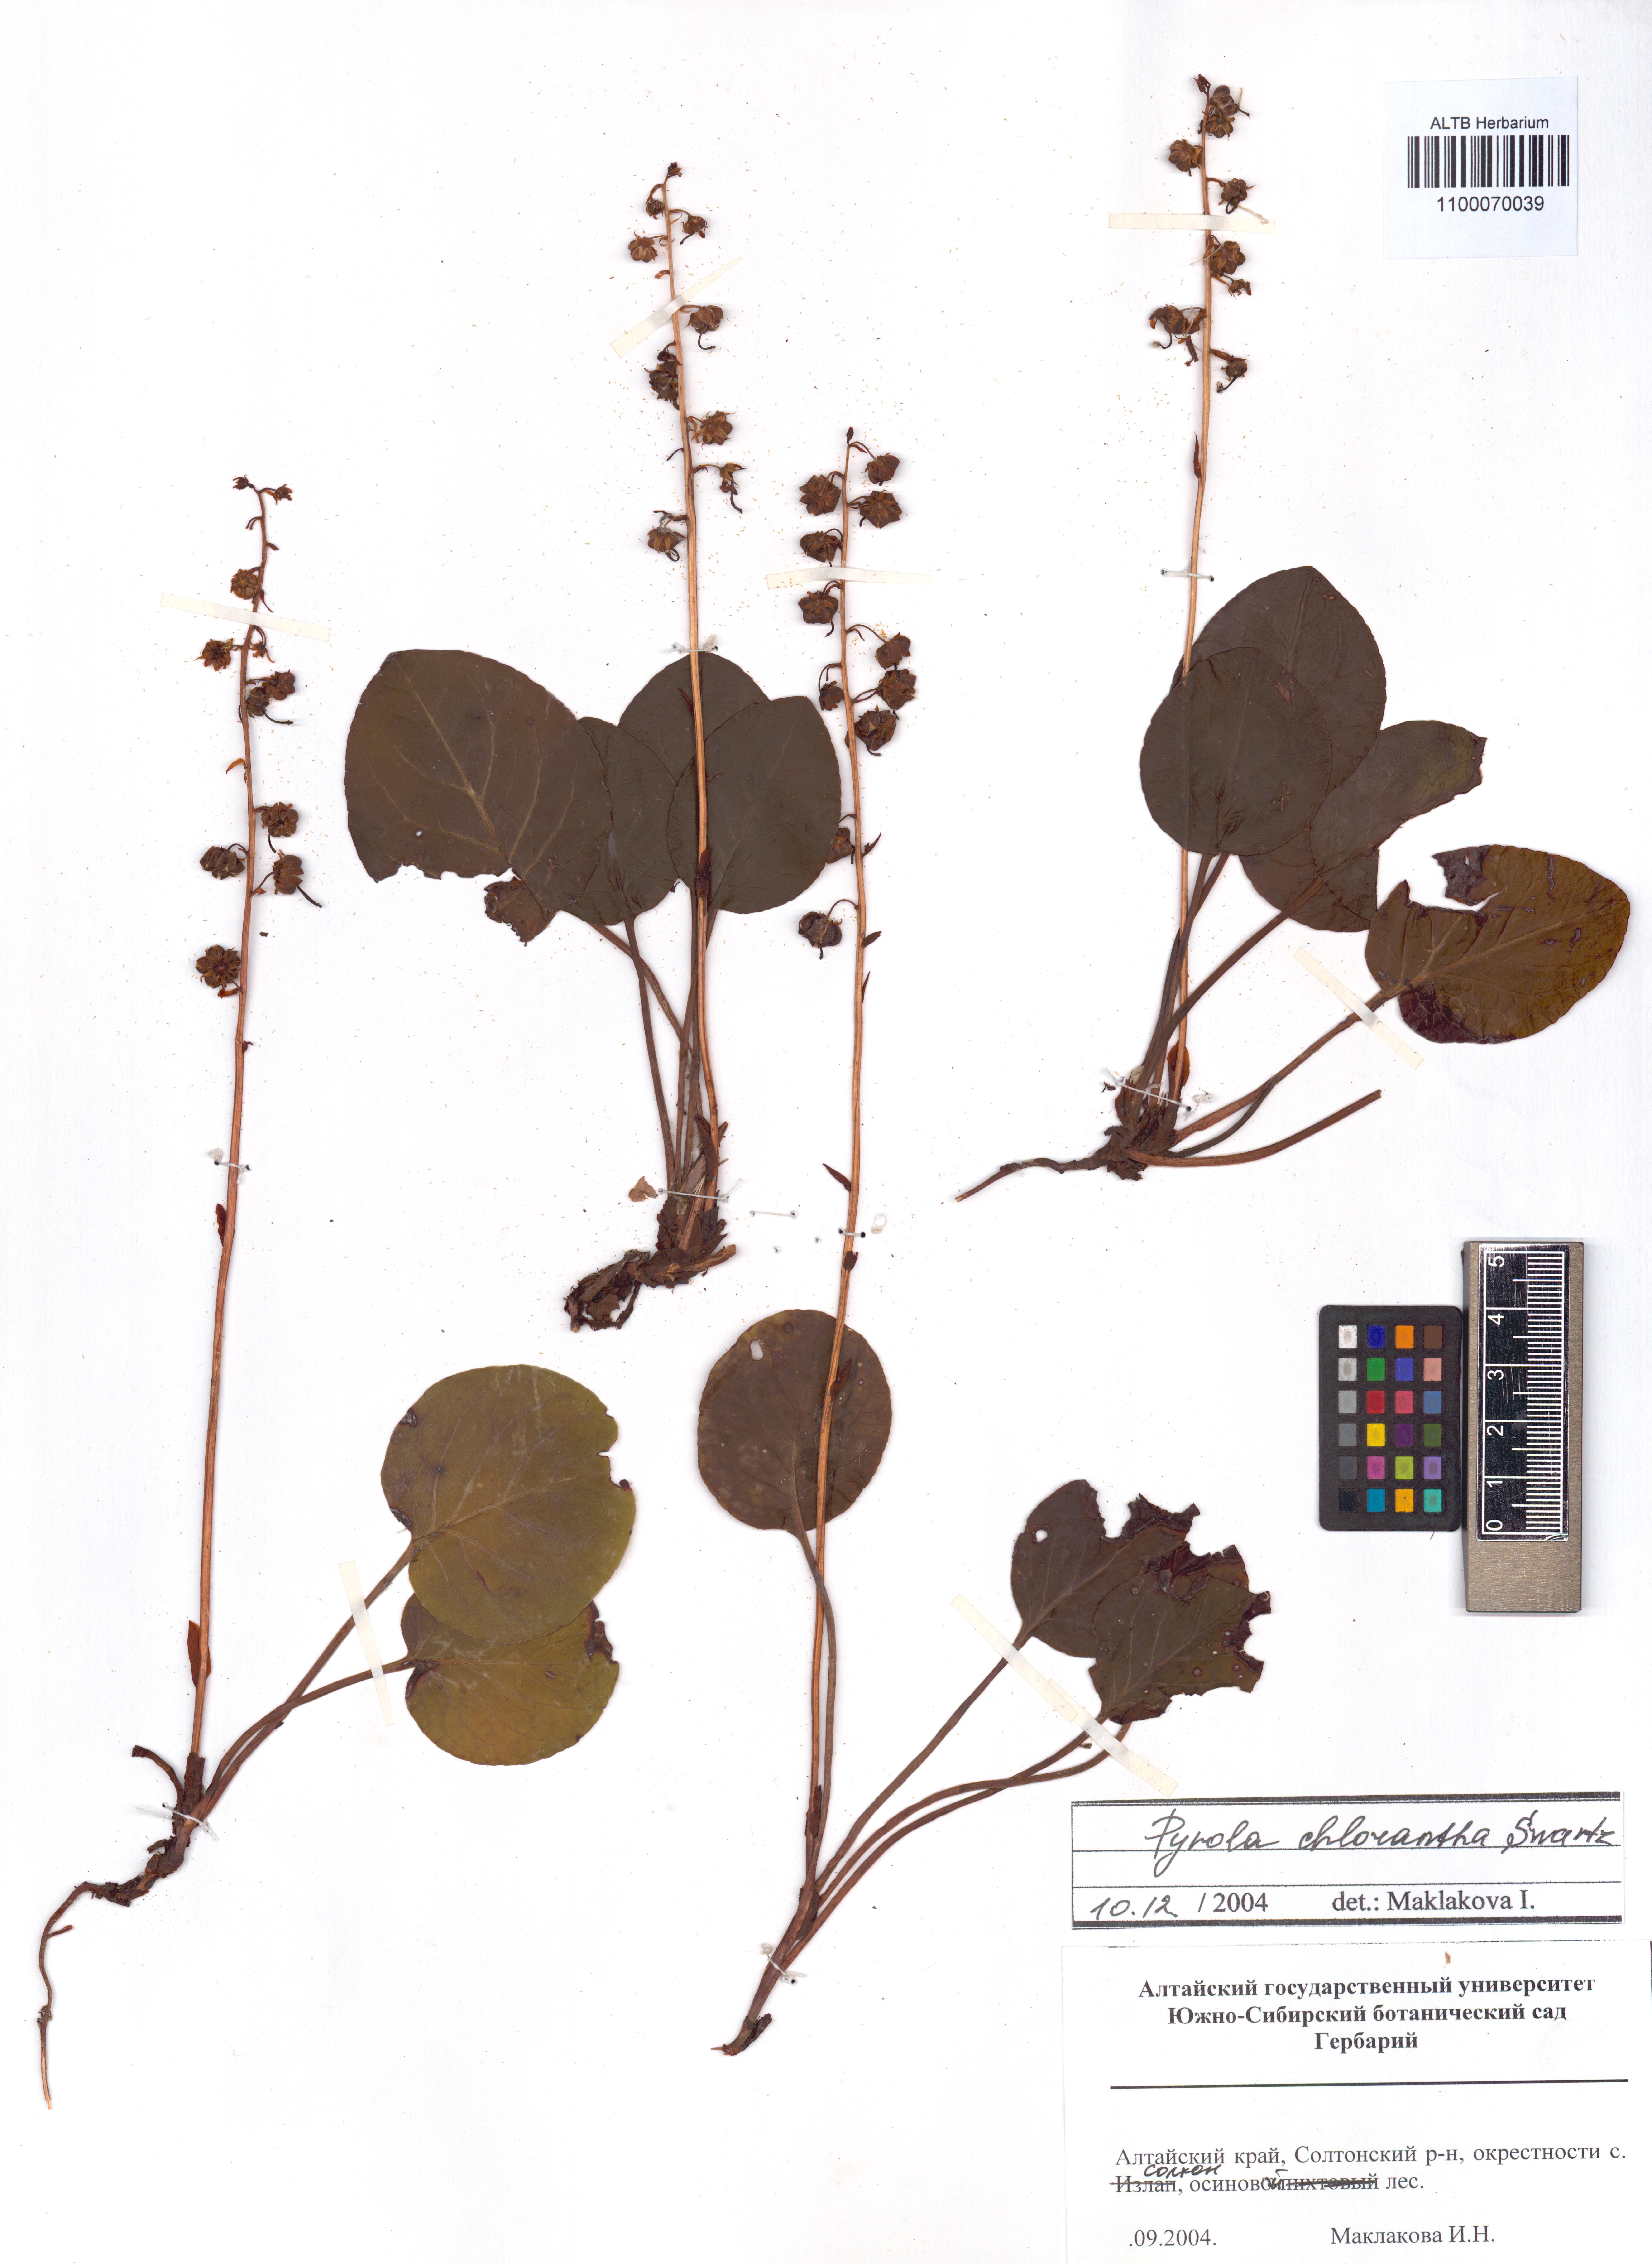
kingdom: Plantae
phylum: Tracheophyta
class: Magnoliopsida
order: Ericales
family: Ericaceae
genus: Pyrola
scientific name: Pyrola chlorantha
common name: Green wintergreen
